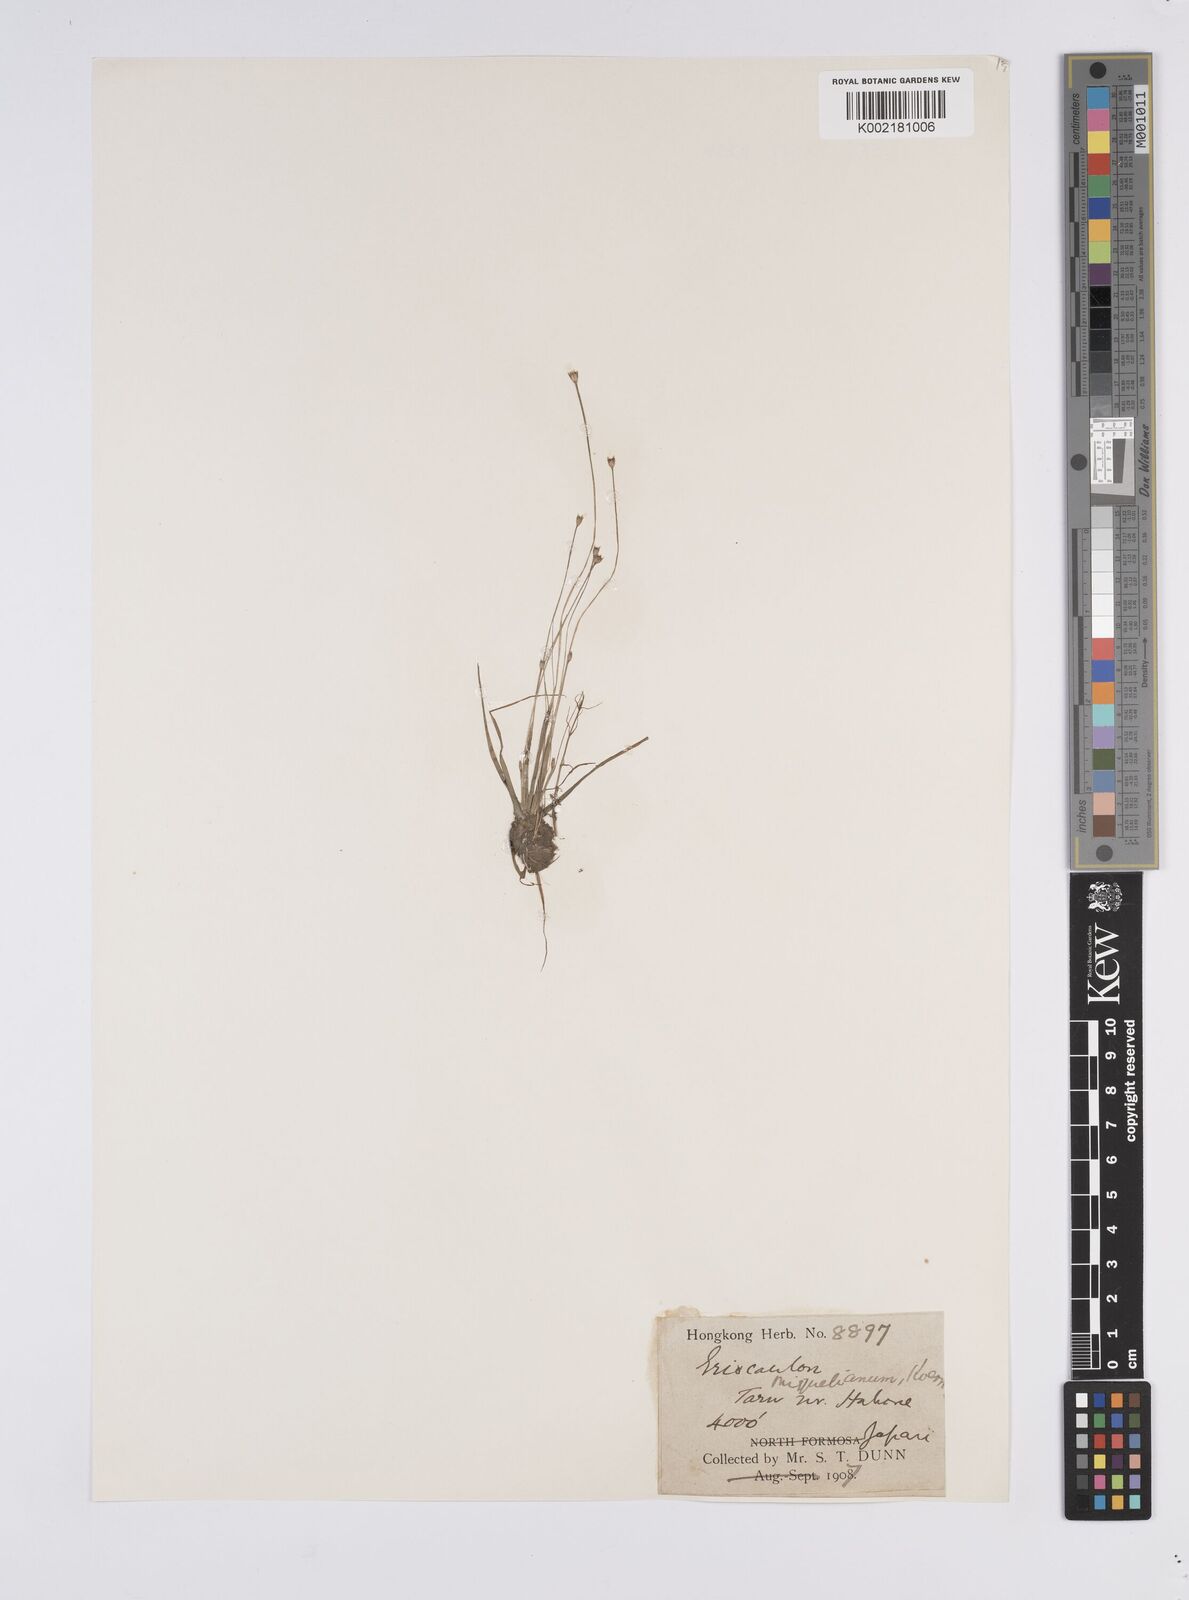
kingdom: Plantae
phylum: Tracheophyta
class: Liliopsida
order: Poales
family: Eriocaulaceae
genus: Eriocaulon
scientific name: Eriocaulon miquelianum
